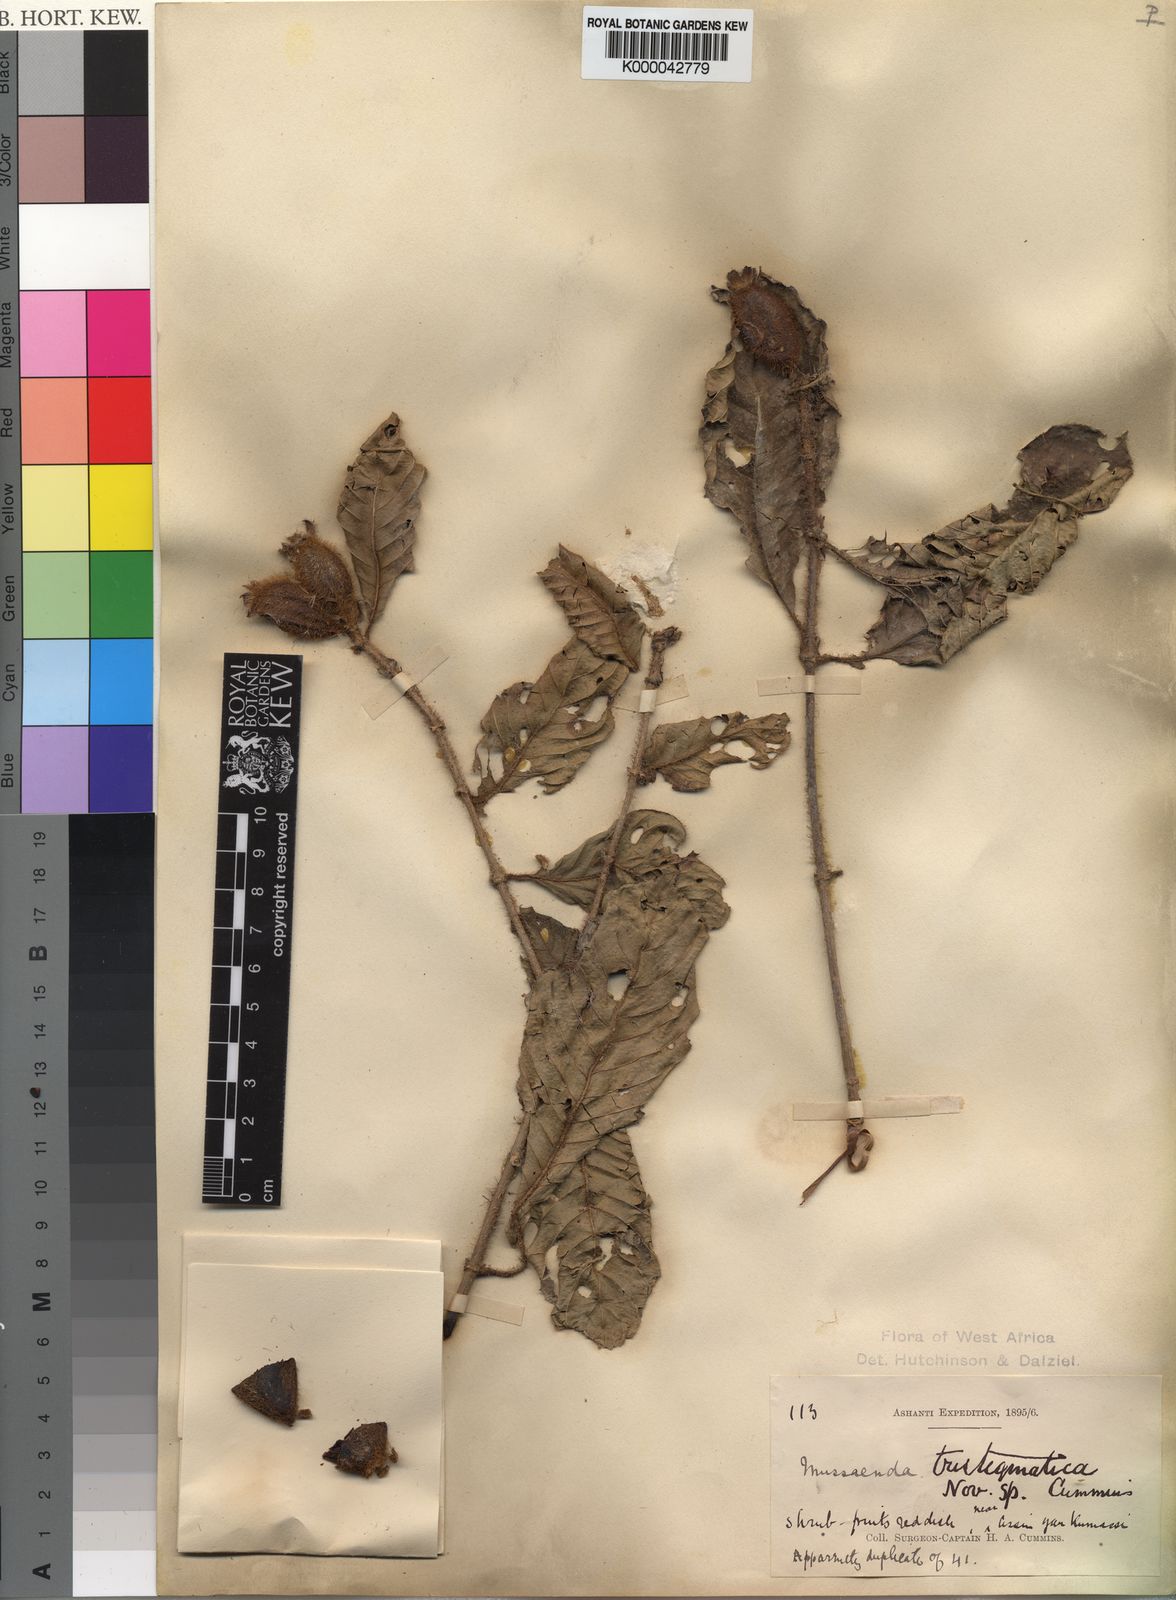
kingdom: Plantae
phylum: Tracheophyta
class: Magnoliopsida
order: Gentianales
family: Rubiaceae
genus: Mussaenda
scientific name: Mussaenda tristigmatica
